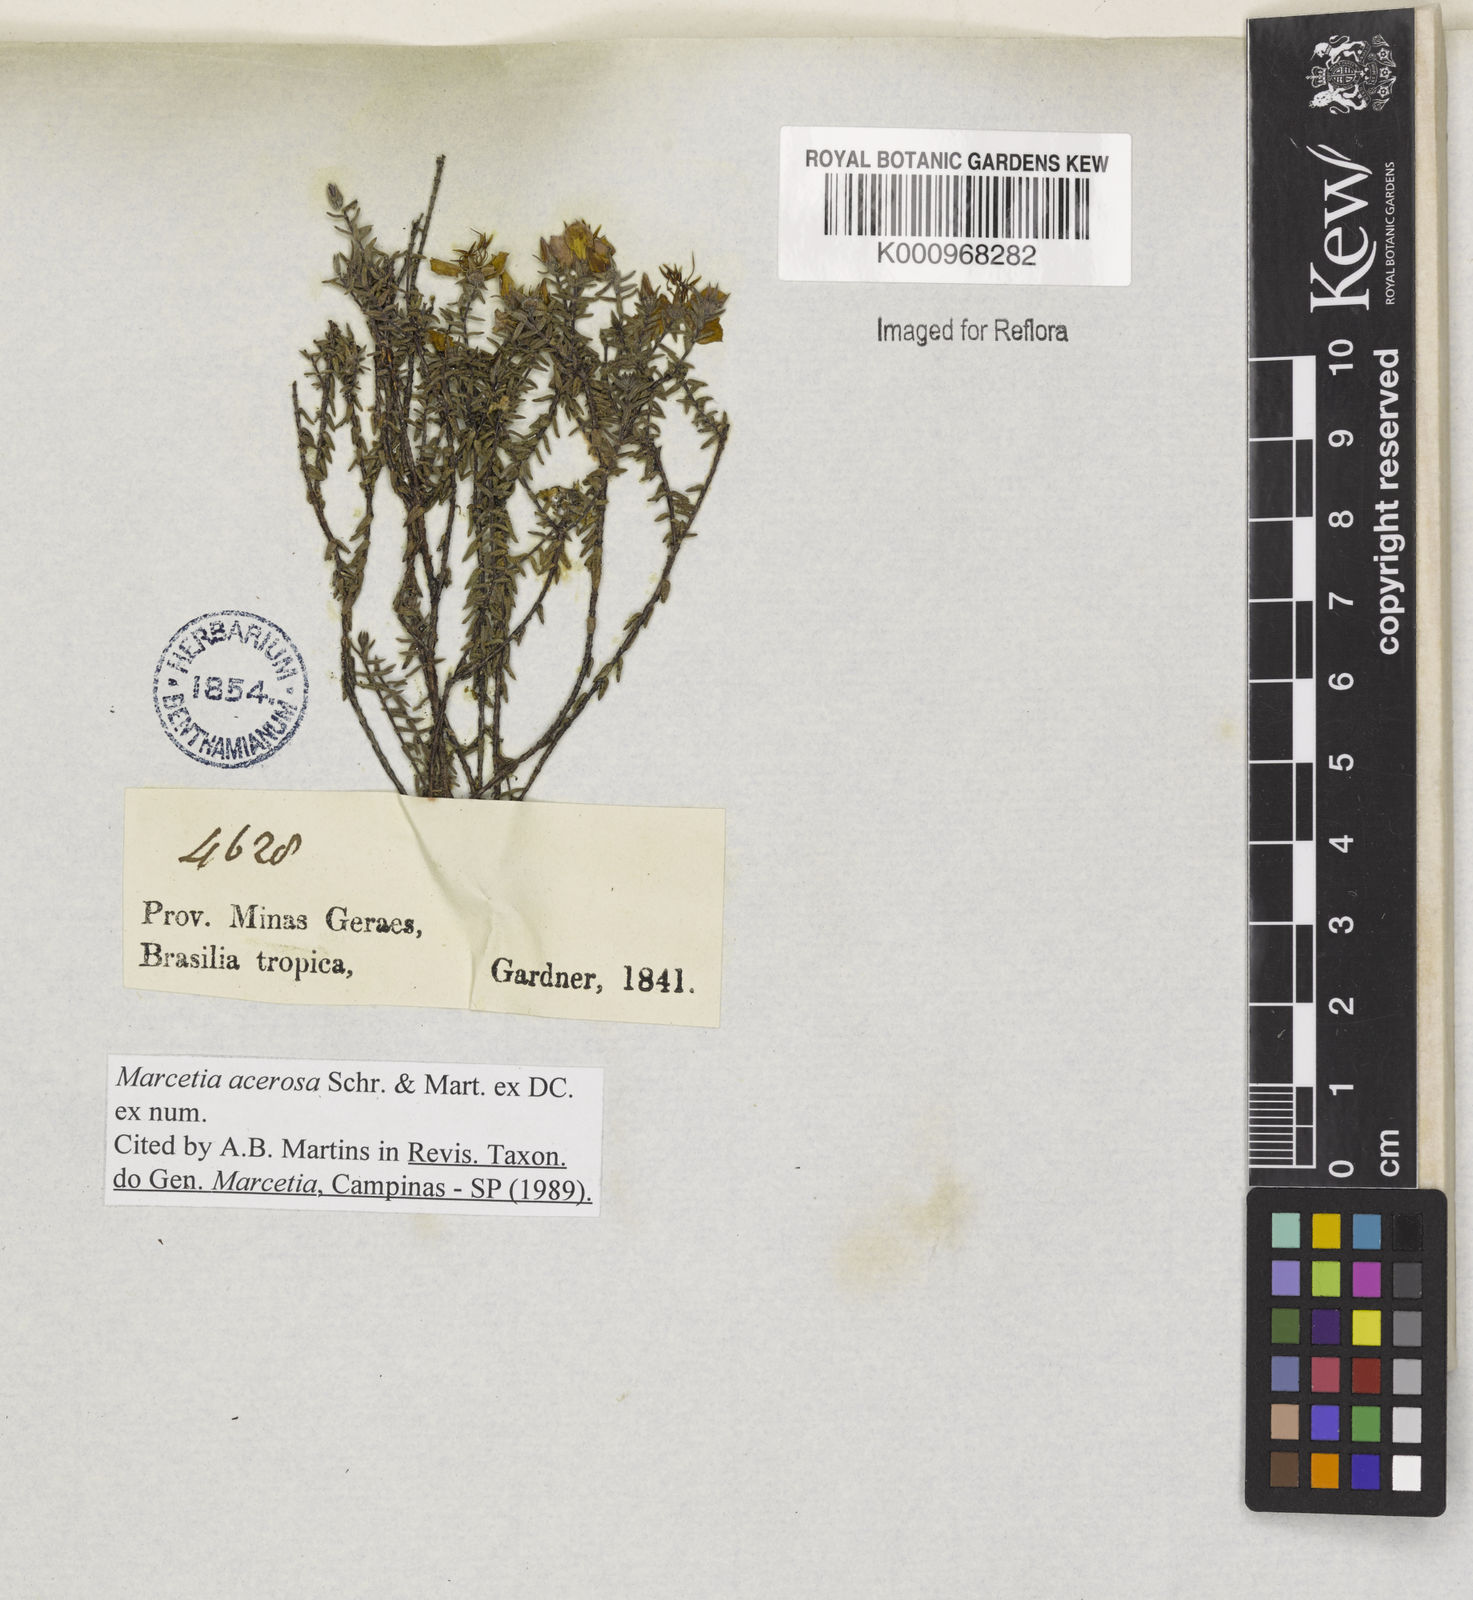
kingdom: Plantae
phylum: Tracheophyta
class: Magnoliopsida
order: Myrtales
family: Melastomataceae
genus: Marcetia
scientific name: Marcetia acerosa
